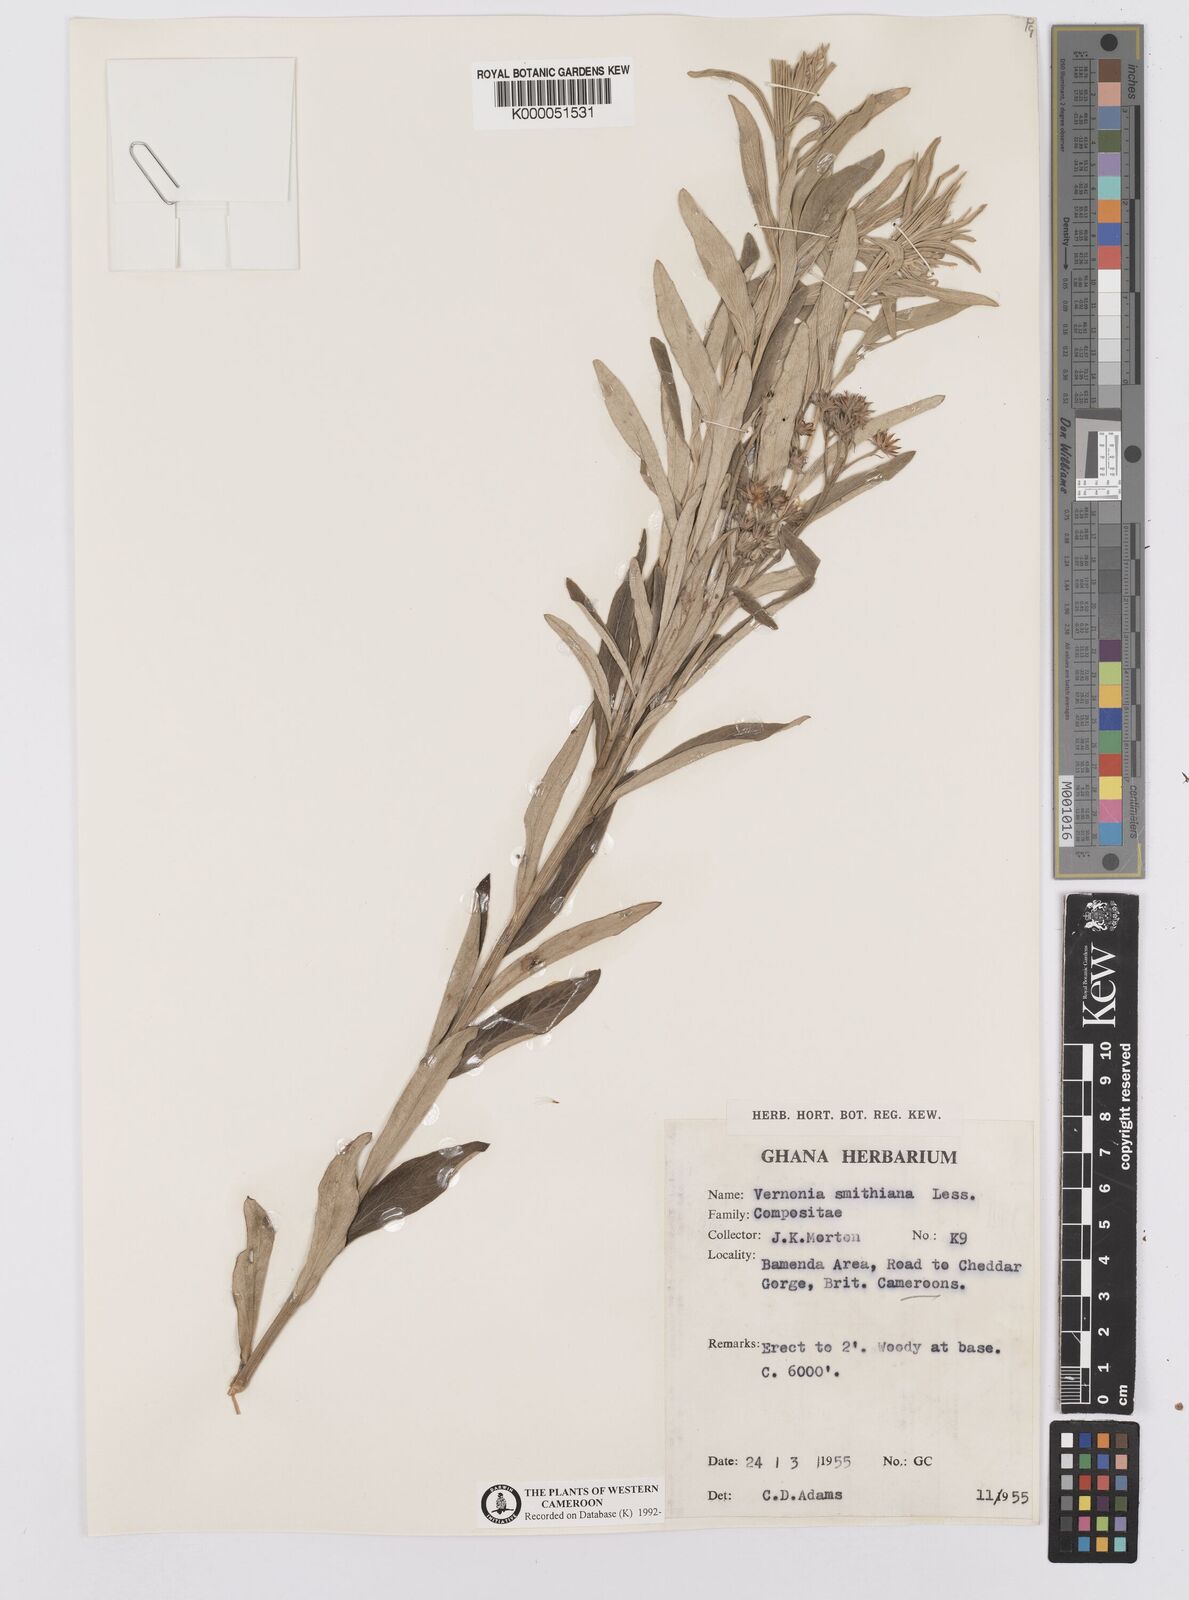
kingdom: Plantae
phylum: Tracheophyta
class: Magnoliopsida
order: Asterales
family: Asteraceae
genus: Hilliardiella
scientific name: Hilliardiella smithiana
